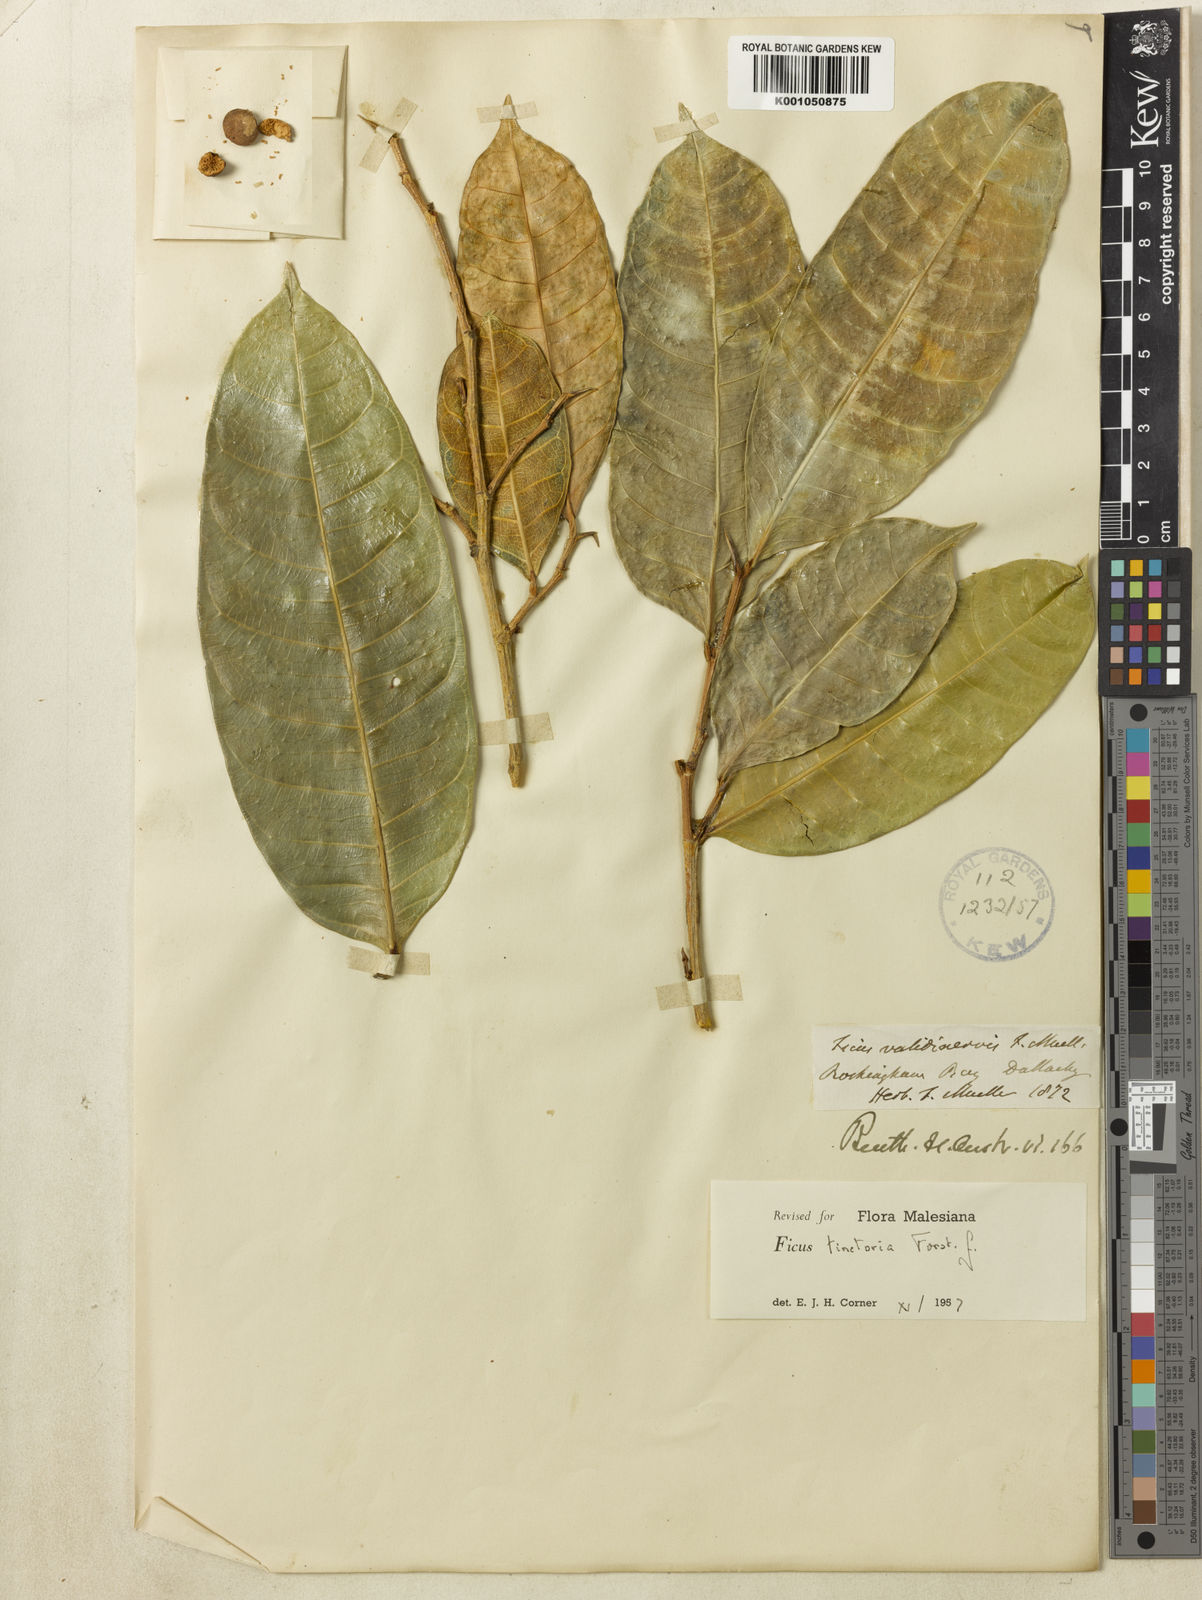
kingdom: Plantae
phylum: Tracheophyta
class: Magnoliopsida
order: Rosales
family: Moraceae
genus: Ficus
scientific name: Ficus tinctoria
